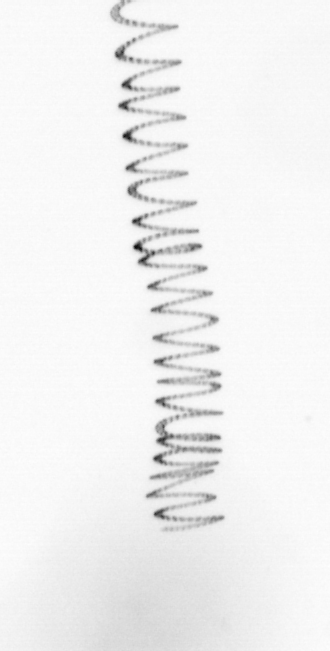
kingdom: Chromista
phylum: Ochrophyta
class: Bacillariophyceae
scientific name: Bacillariophyceae
